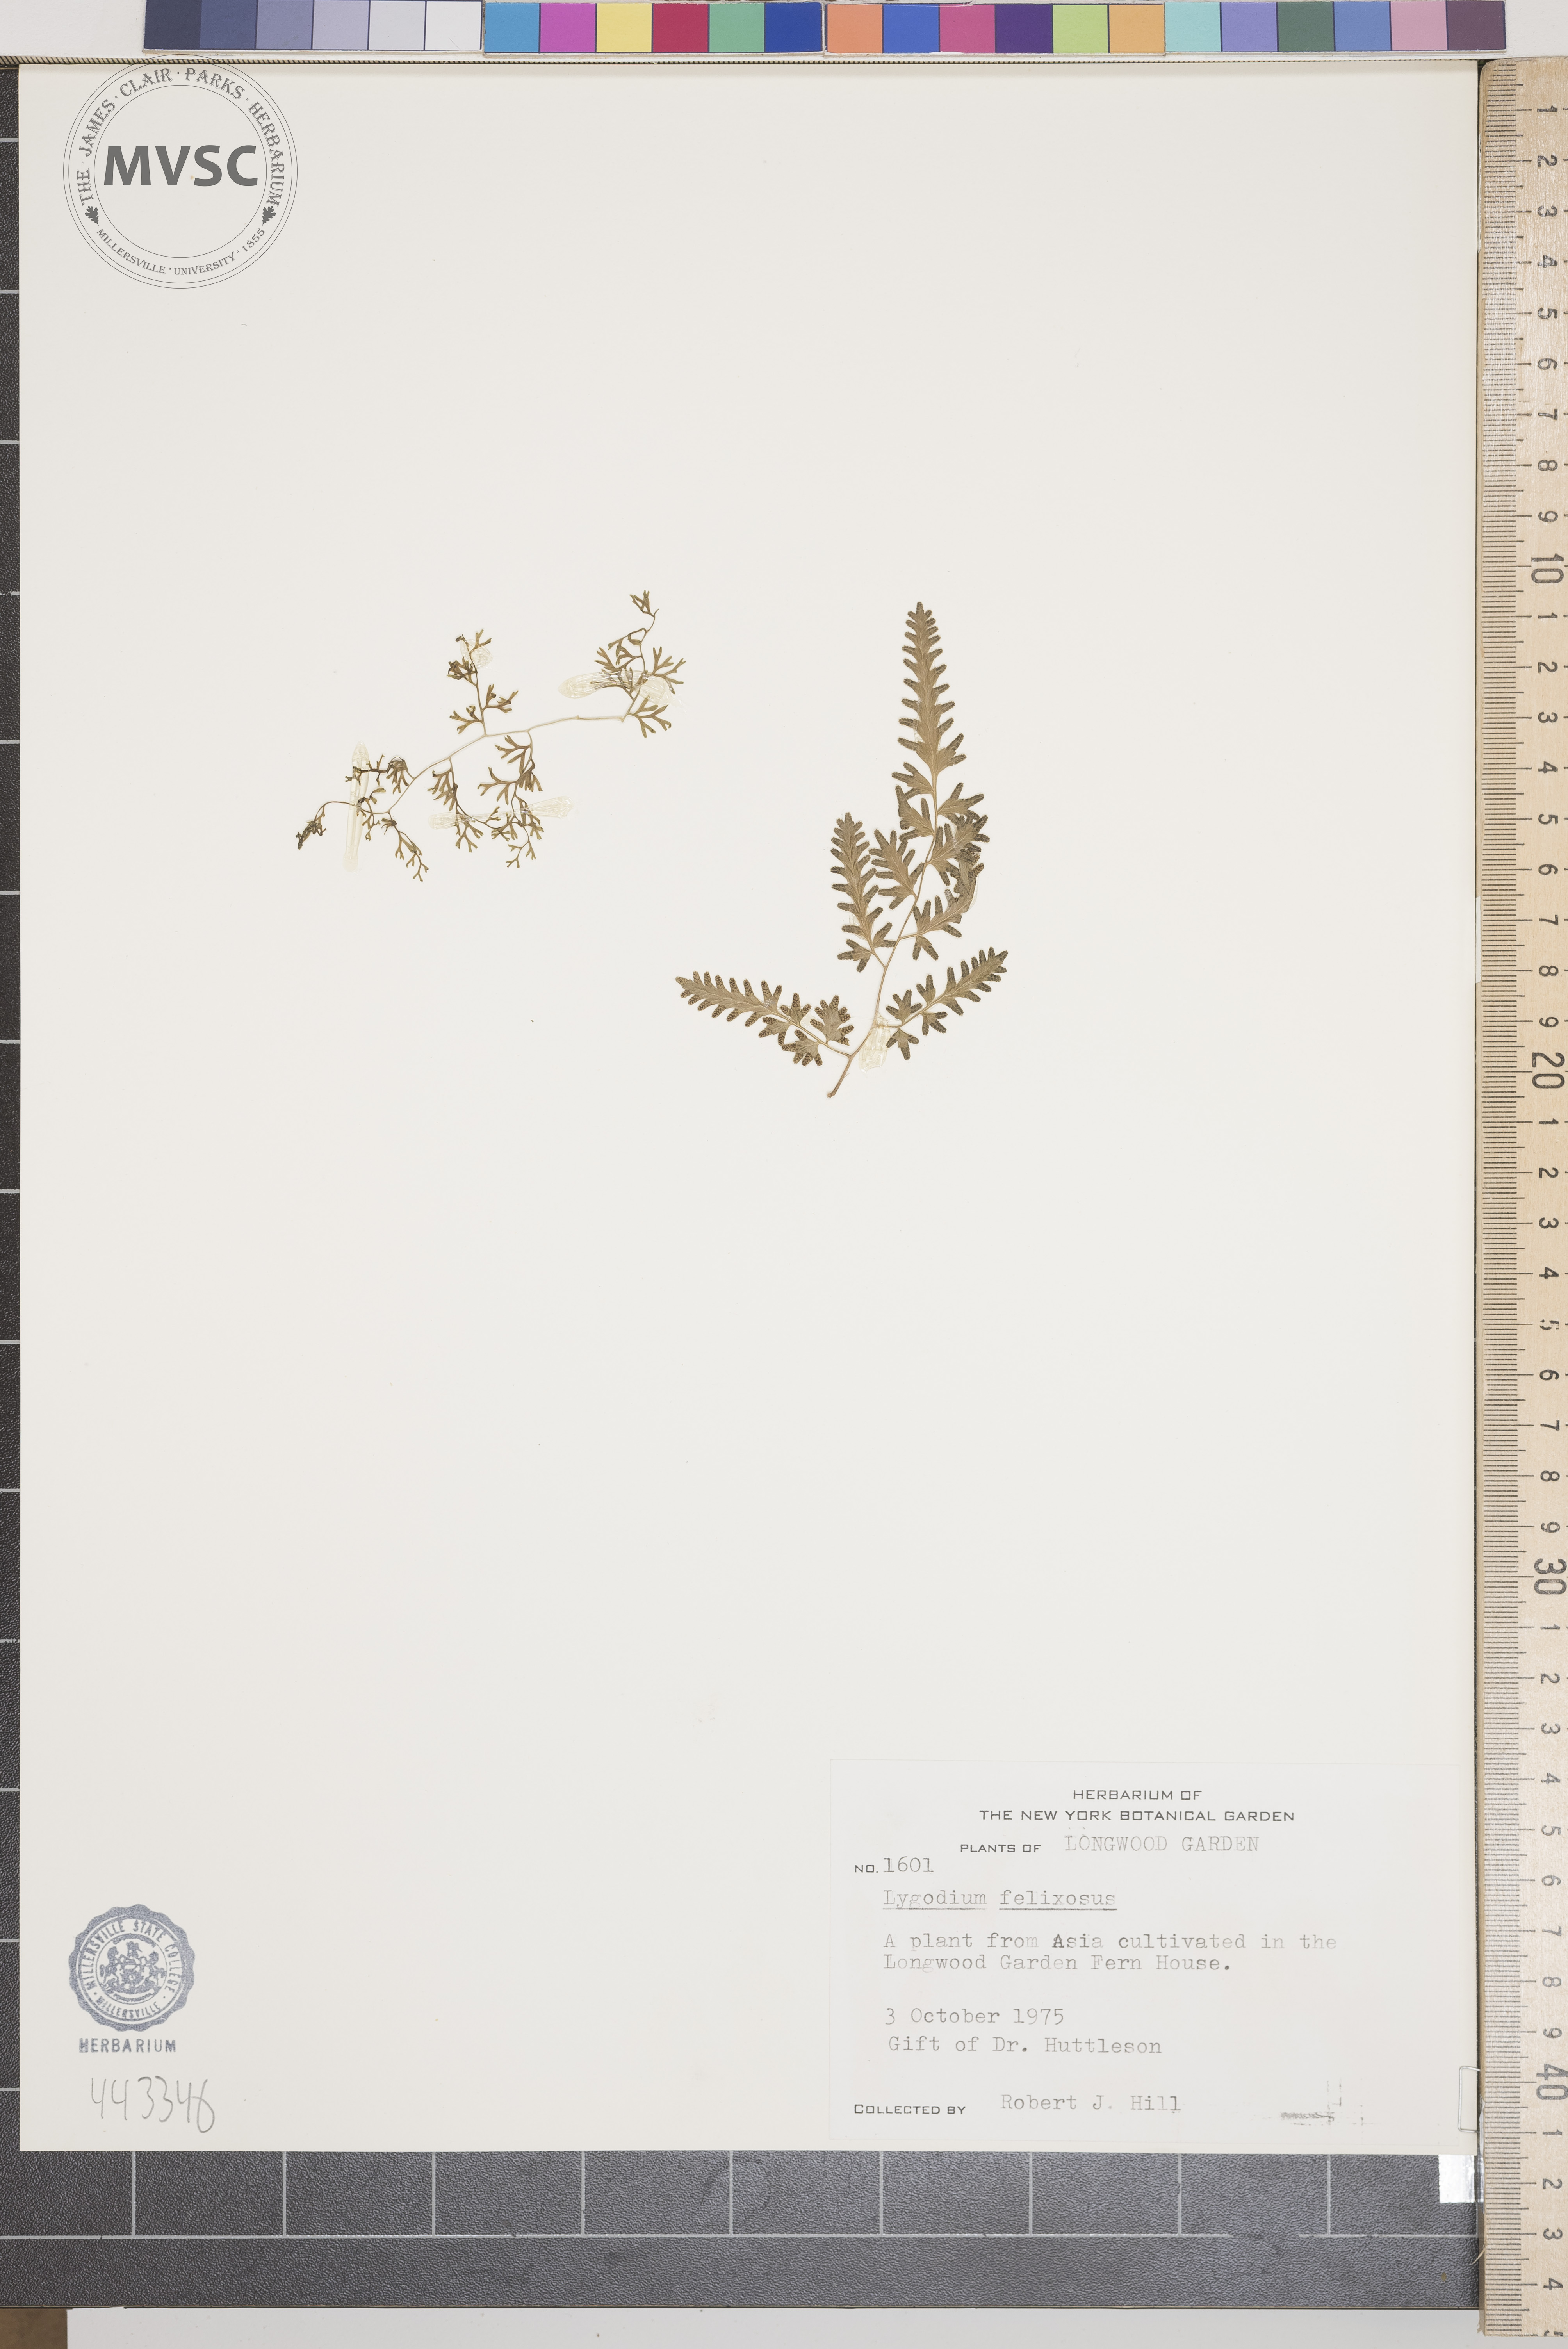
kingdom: Plantae
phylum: Tracheophyta
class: Polypodiopsida
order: Schizaeales
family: Lygodiaceae
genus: Lygodium
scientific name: Lygodium flexuosum
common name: Maidenhair creeper
